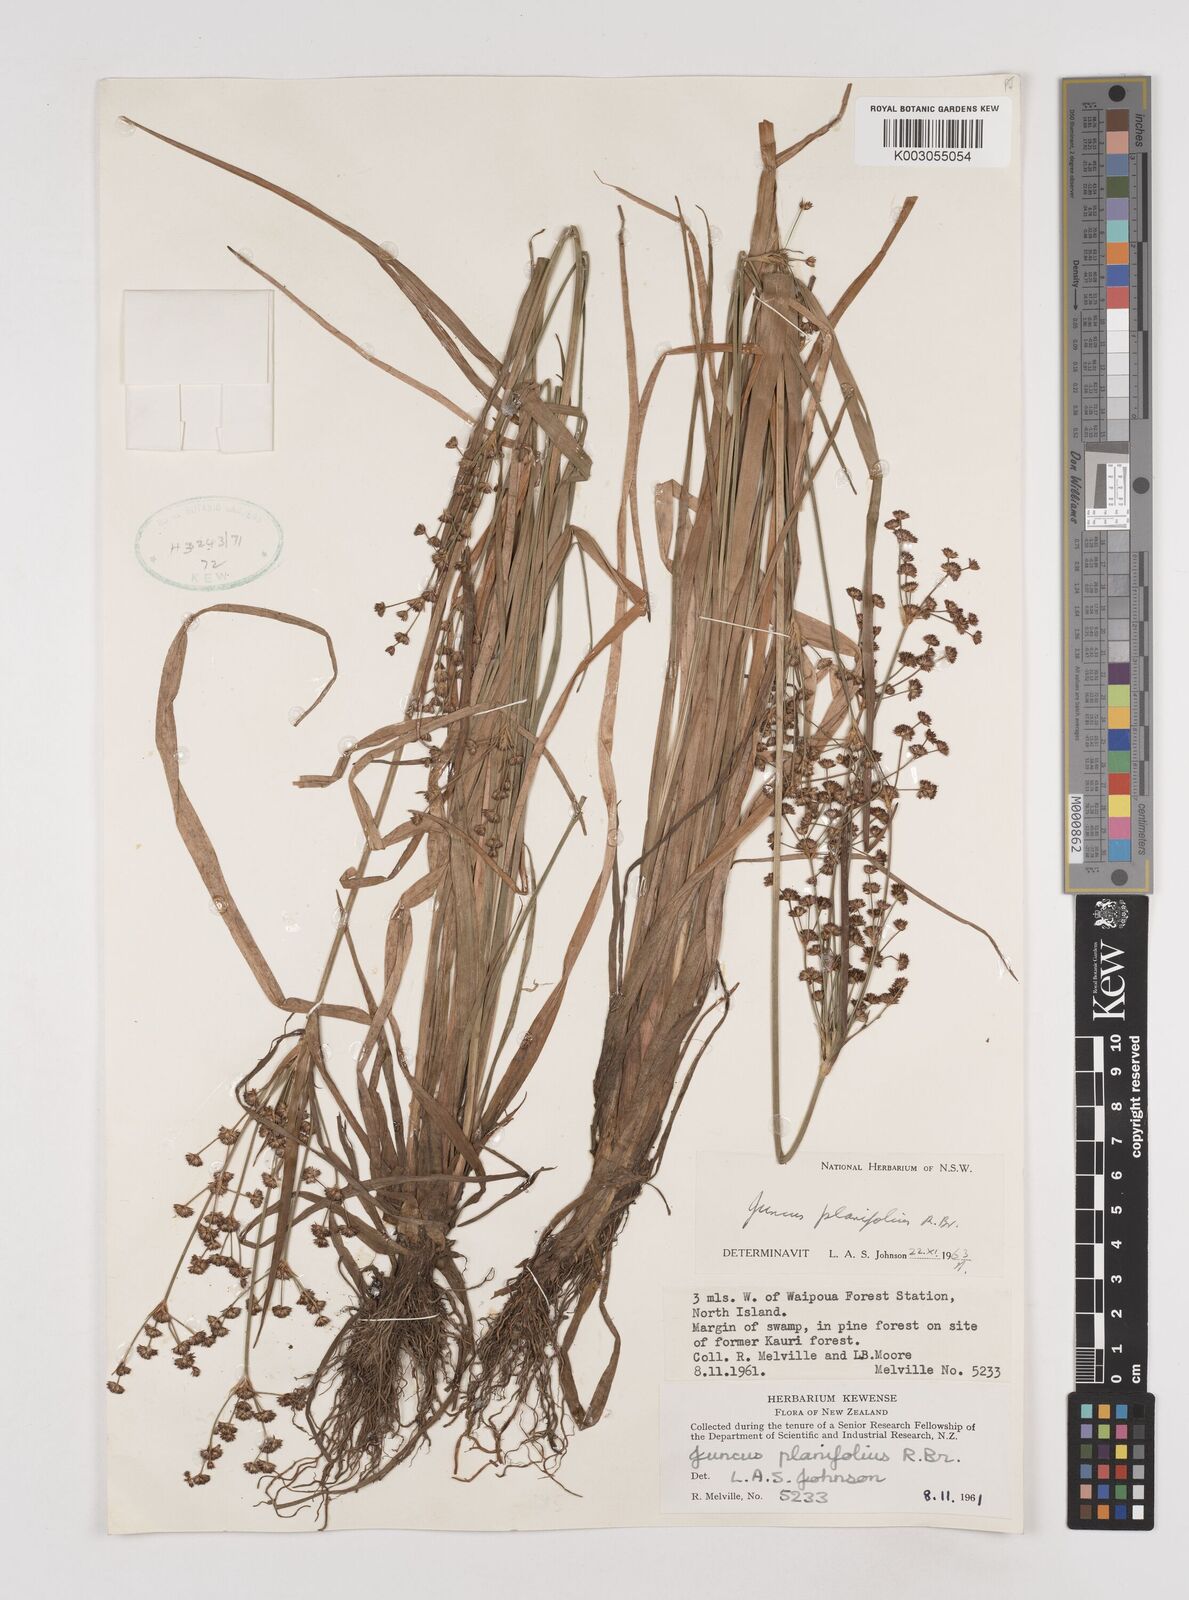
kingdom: Plantae
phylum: Tracheophyta
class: Liliopsida
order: Poales
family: Juncaceae
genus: Juncus
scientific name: Juncus planifolius
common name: Broadleaf rush
